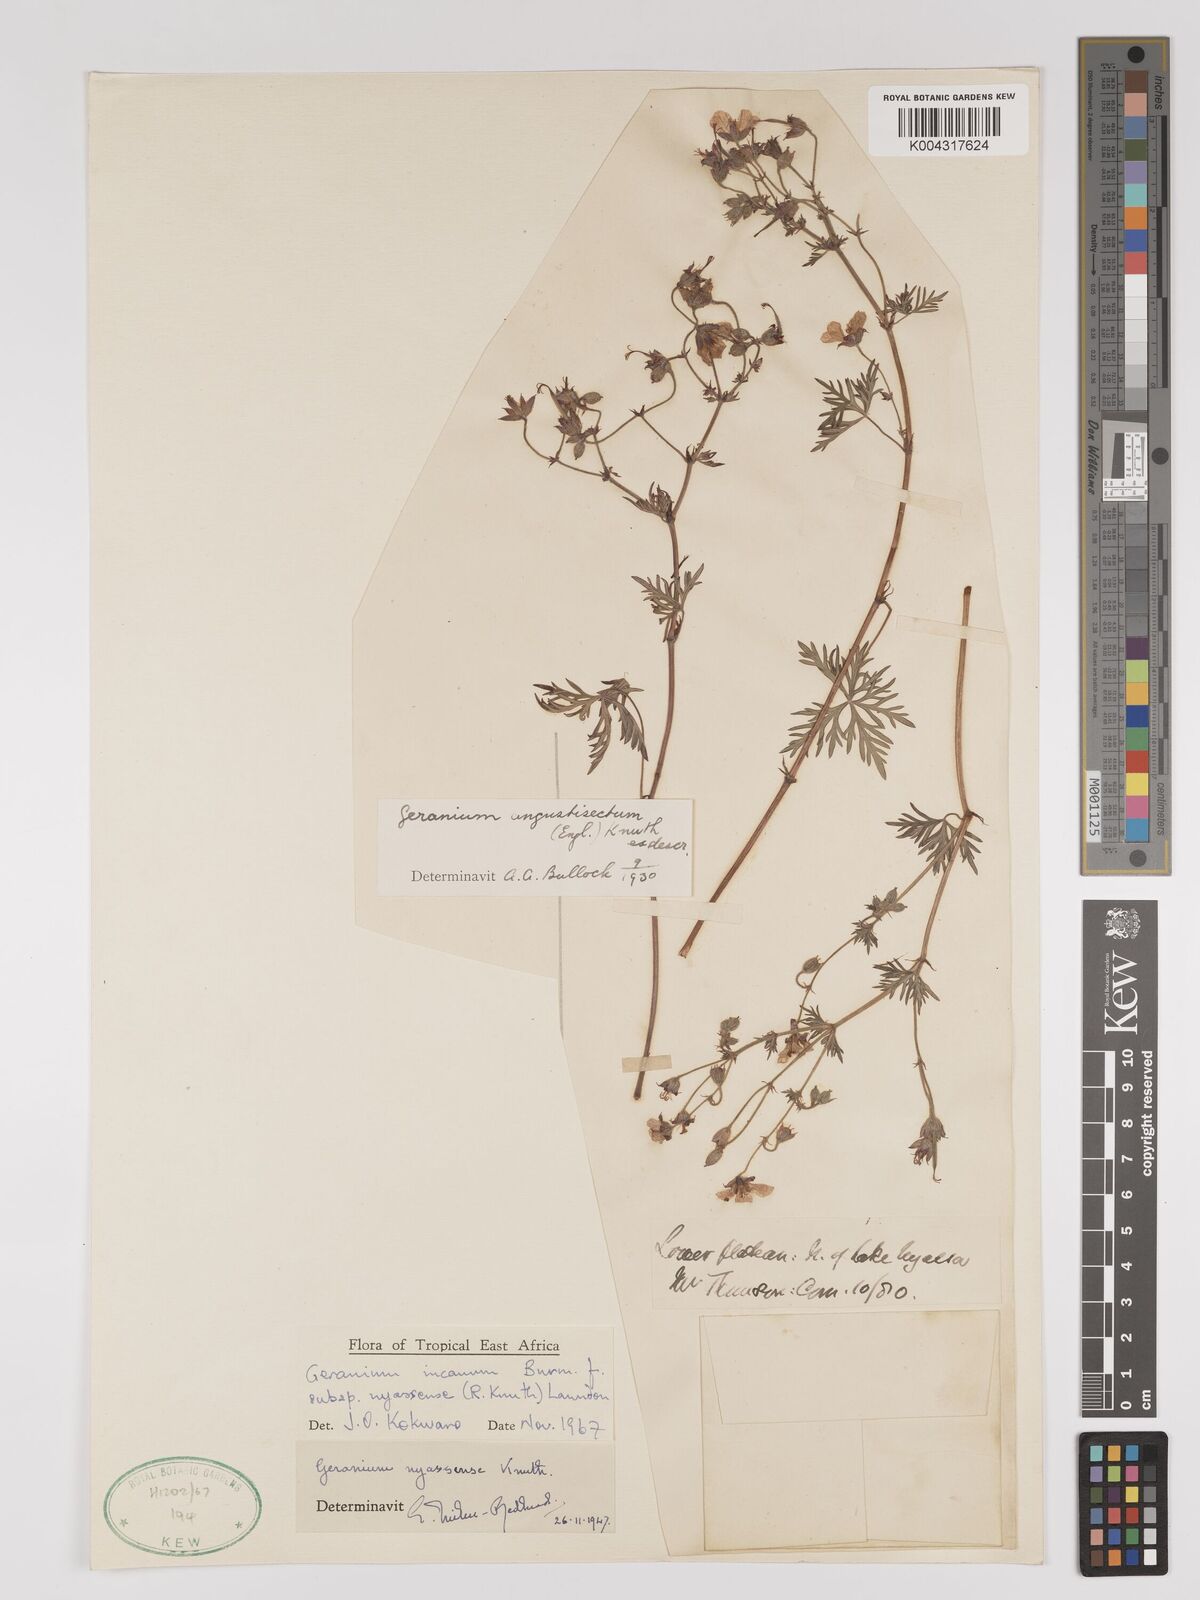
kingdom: Plantae
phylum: Tracheophyta
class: Magnoliopsida
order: Geraniales
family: Geraniaceae
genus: Geranium
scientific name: Geranium incanum
